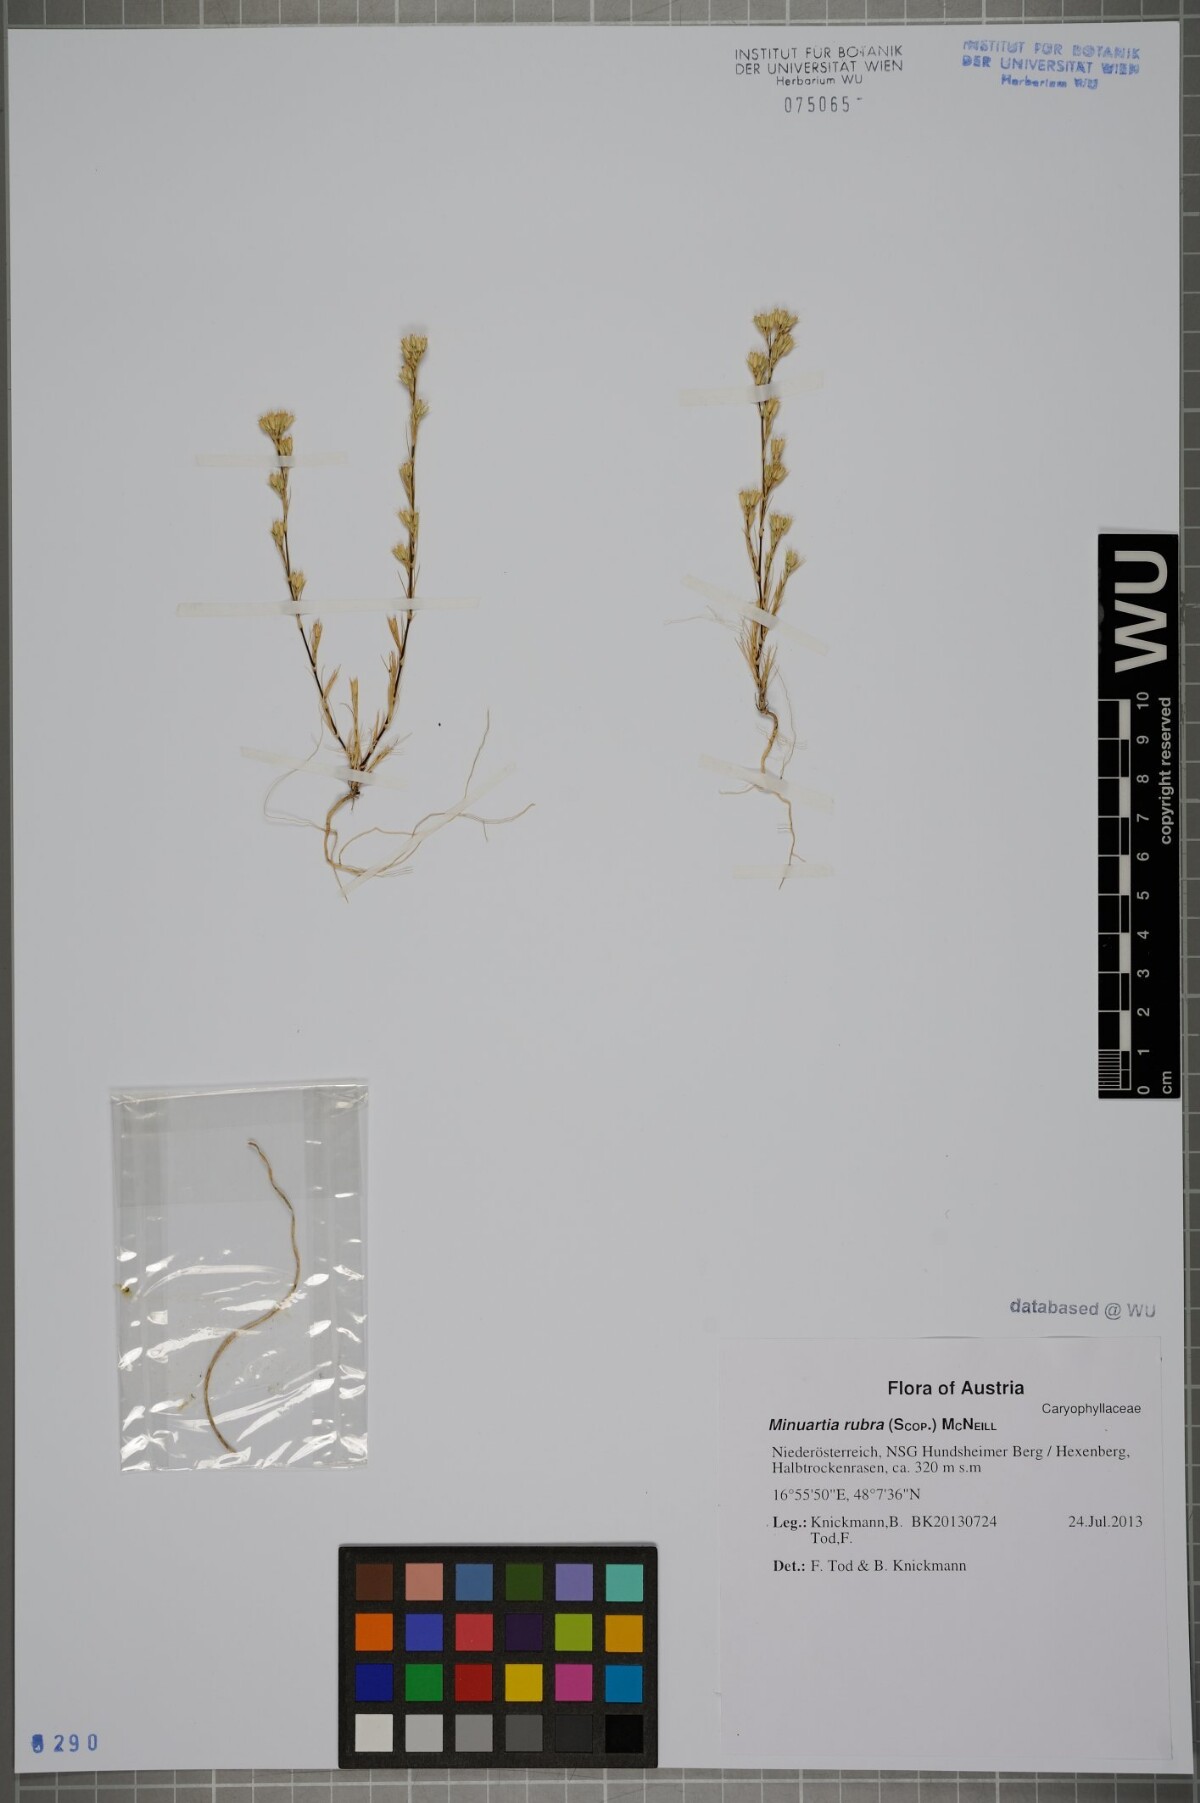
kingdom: Plantae
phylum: Tracheophyta
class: Magnoliopsida
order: Caryophyllales
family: Caryophyllaceae
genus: Minuartia
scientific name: Minuartia mucronata
